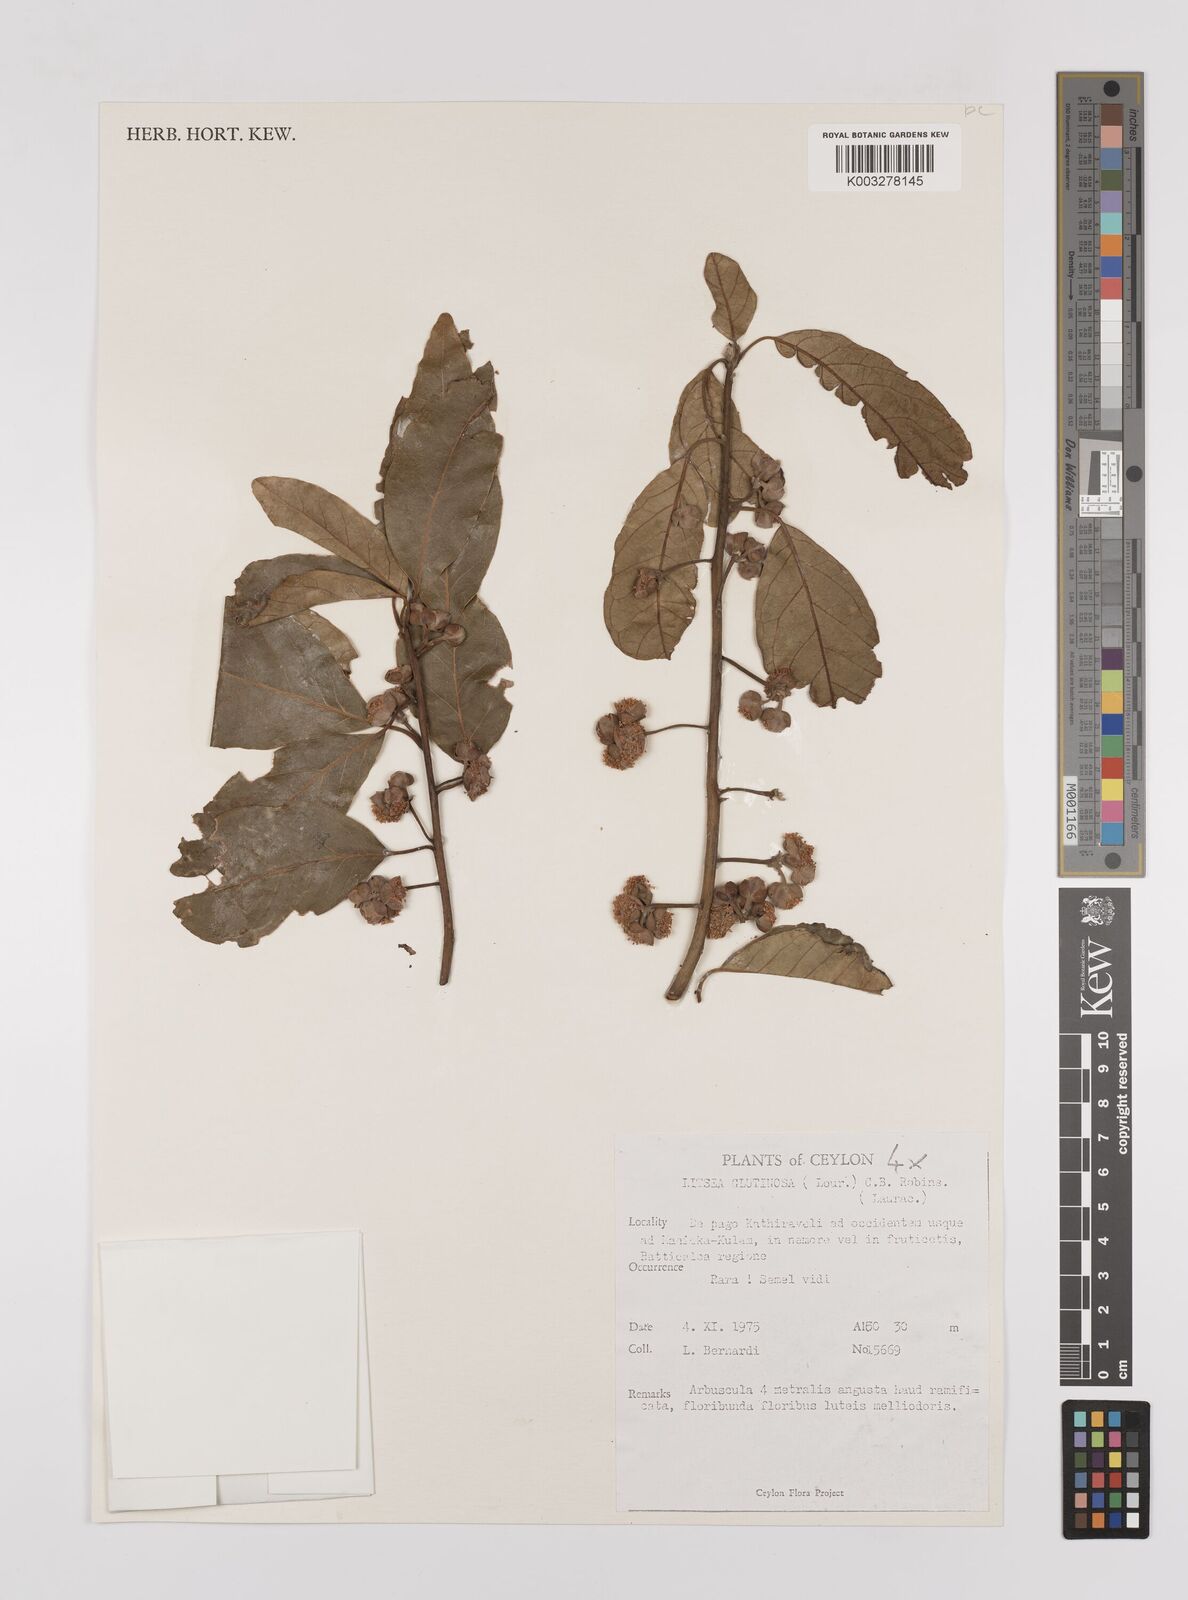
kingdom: Plantae
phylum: Tracheophyta
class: Magnoliopsida
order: Laurales
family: Lauraceae
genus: Litsea
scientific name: Litsea
